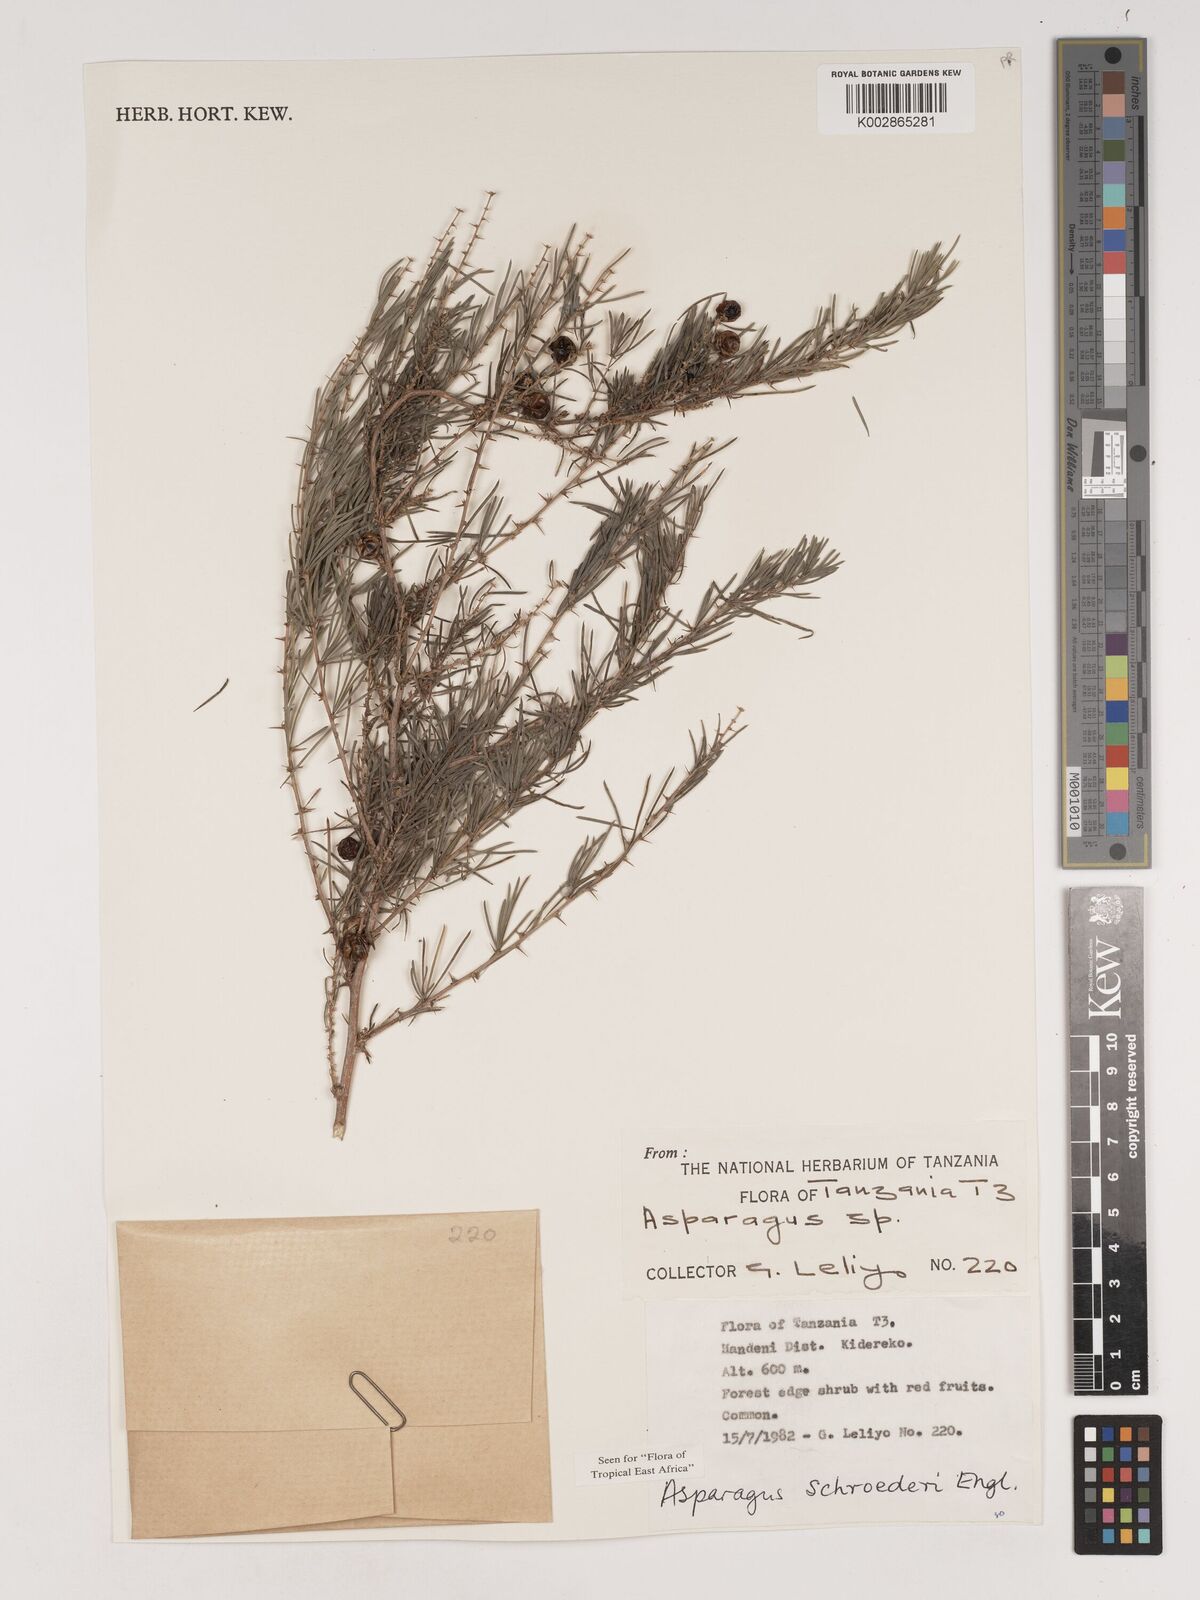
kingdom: Plantae
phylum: Tracheophyta
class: Liliopsida
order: Asparagales
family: Asparagaceae
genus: Asparagus
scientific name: Asparagus schroederi
